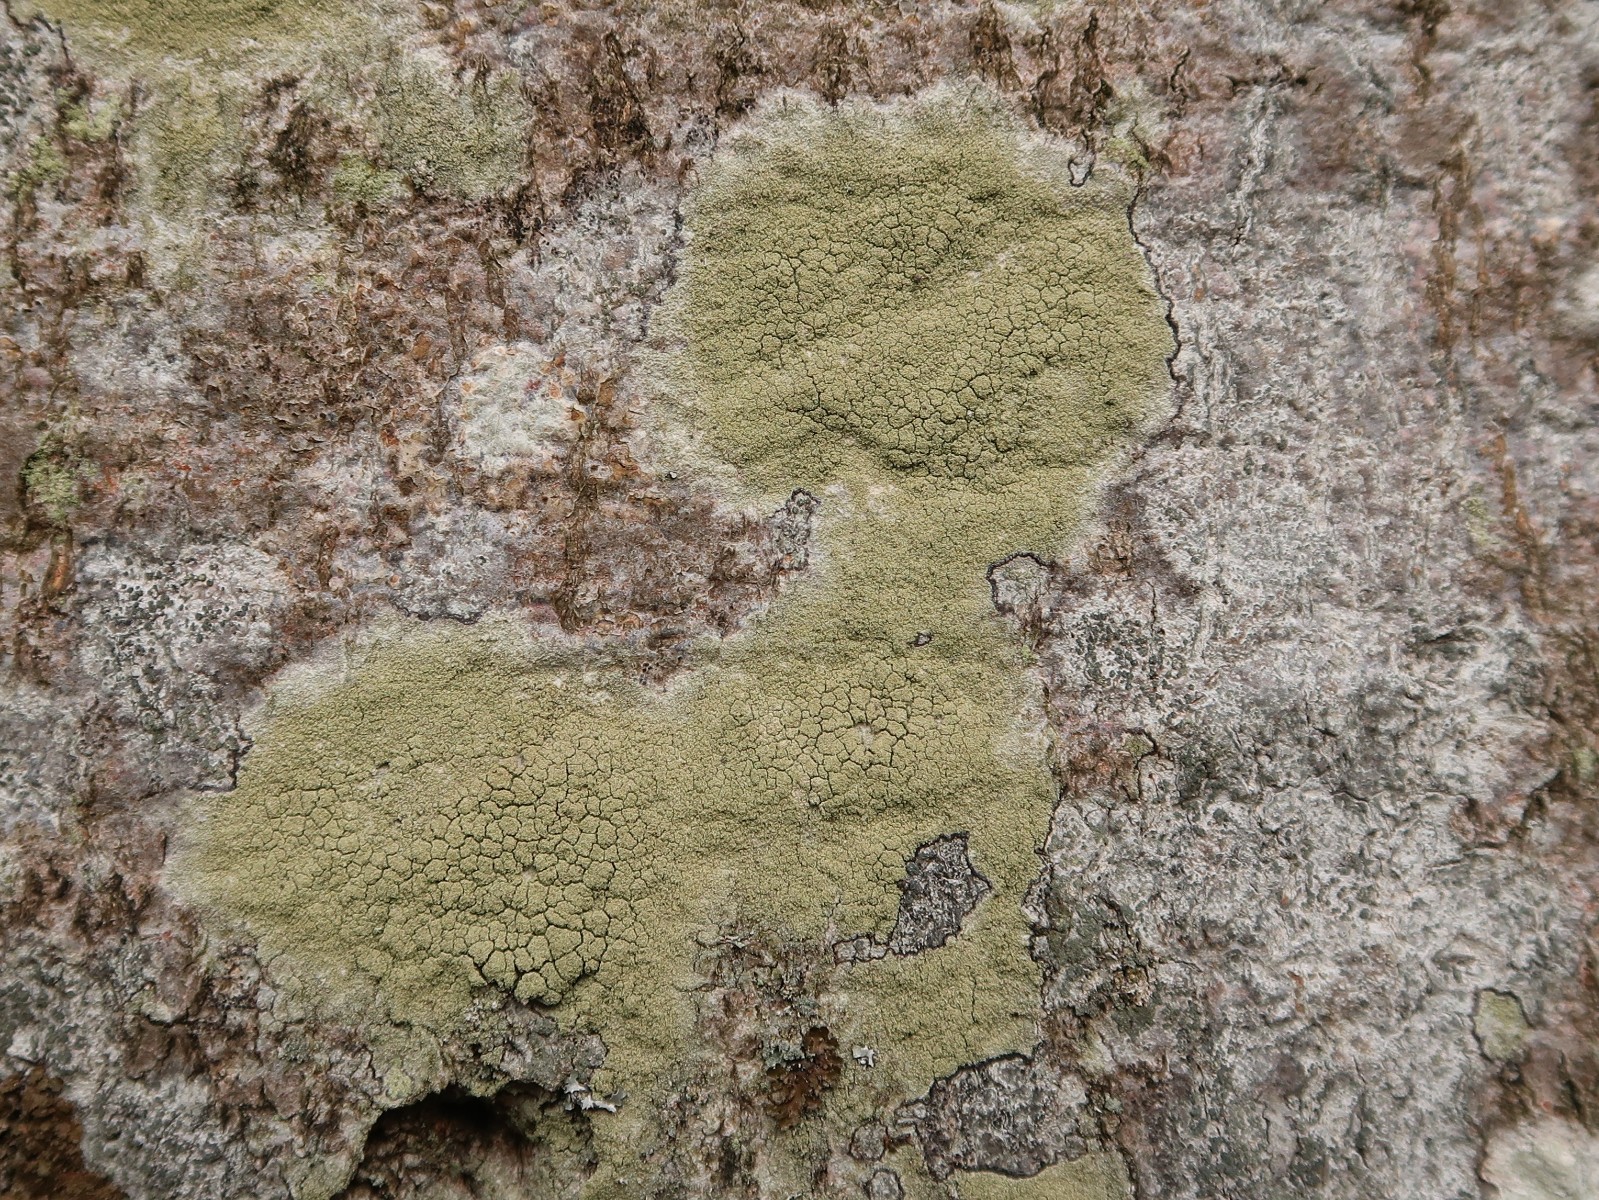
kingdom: Fungi
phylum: Ascomycota
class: Lecanoromycetes
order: Lecanorales
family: Lecanoraceae
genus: Pyrrhospora
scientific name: Pyrrhospora quernea
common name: almindelig rødskivelav
